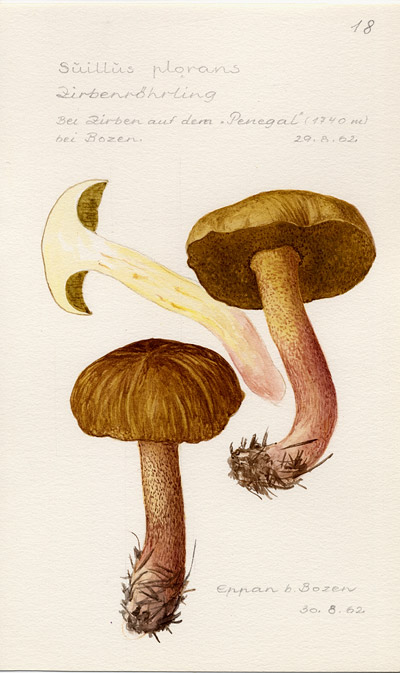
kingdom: Fungi
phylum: Basidiomycota
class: Agaricomycetes
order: Boletales
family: Suillaceae
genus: Suillus
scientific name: Suillus plorans
